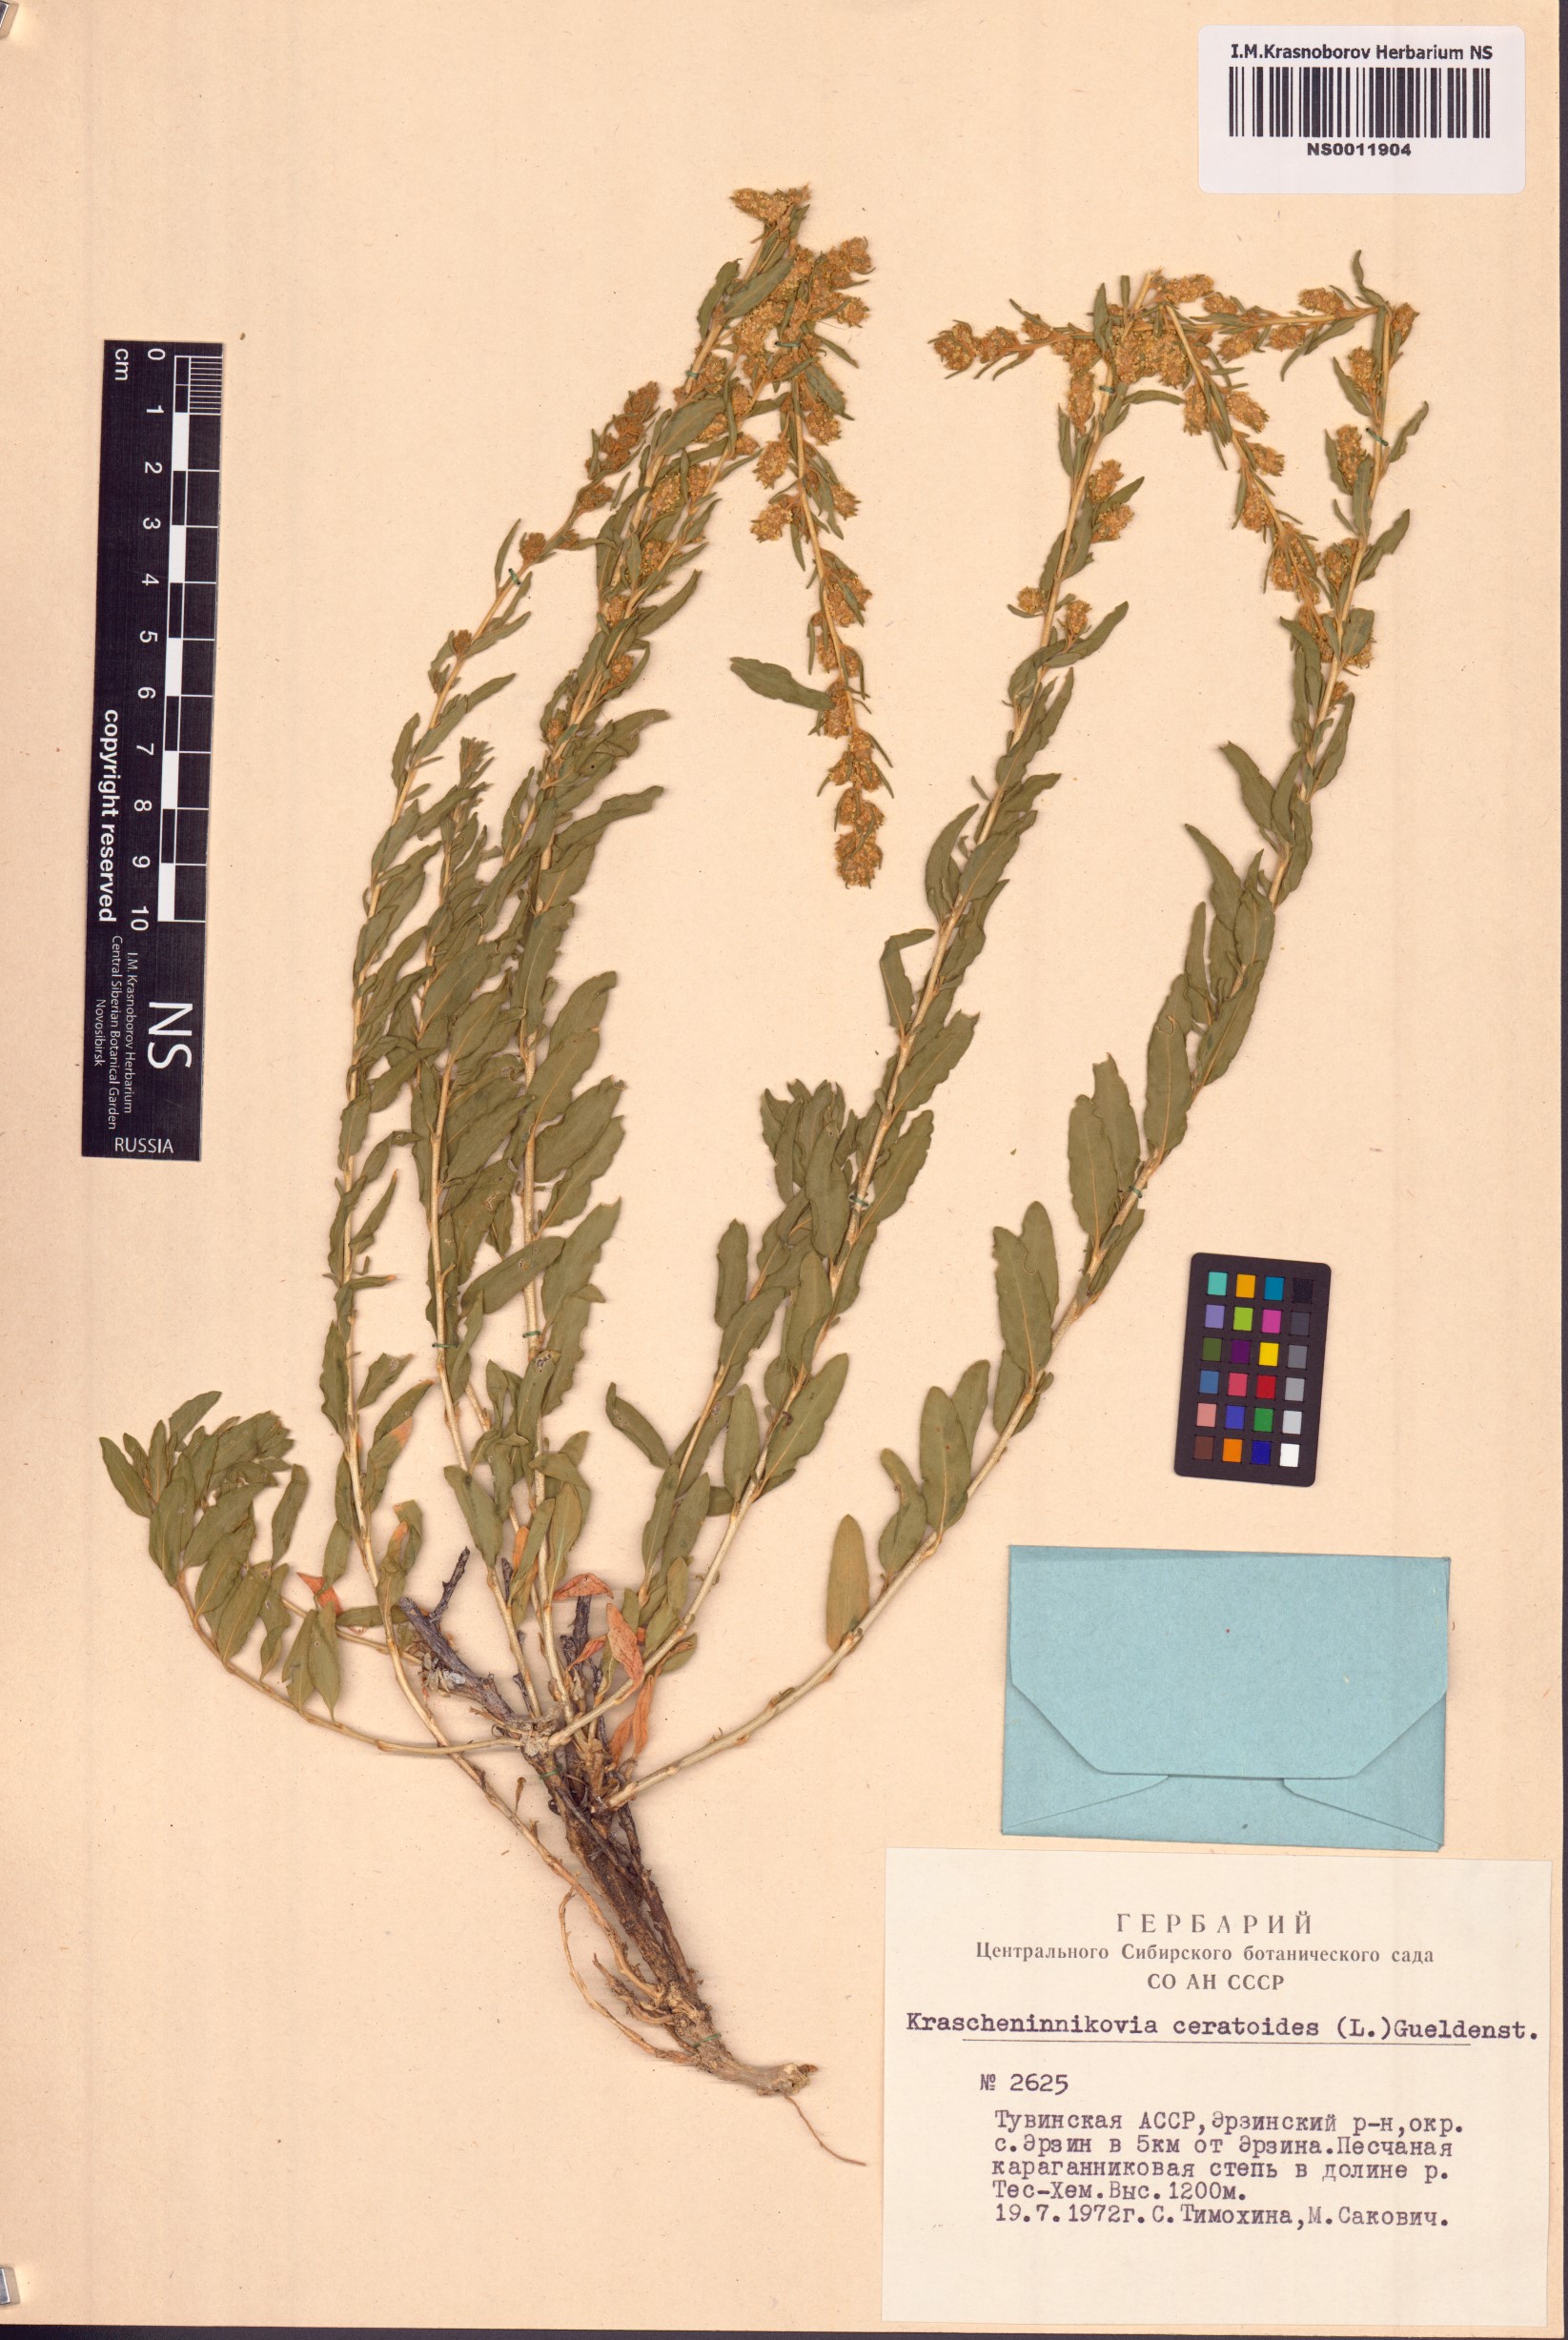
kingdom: Plantae
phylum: Tracheophyta
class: Magnoliopsida
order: Caryophyllales
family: Amaranthaceae
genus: Krascheninnikovia
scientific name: Krascheninnikovia ceratoides
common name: Pamirian winterfat
